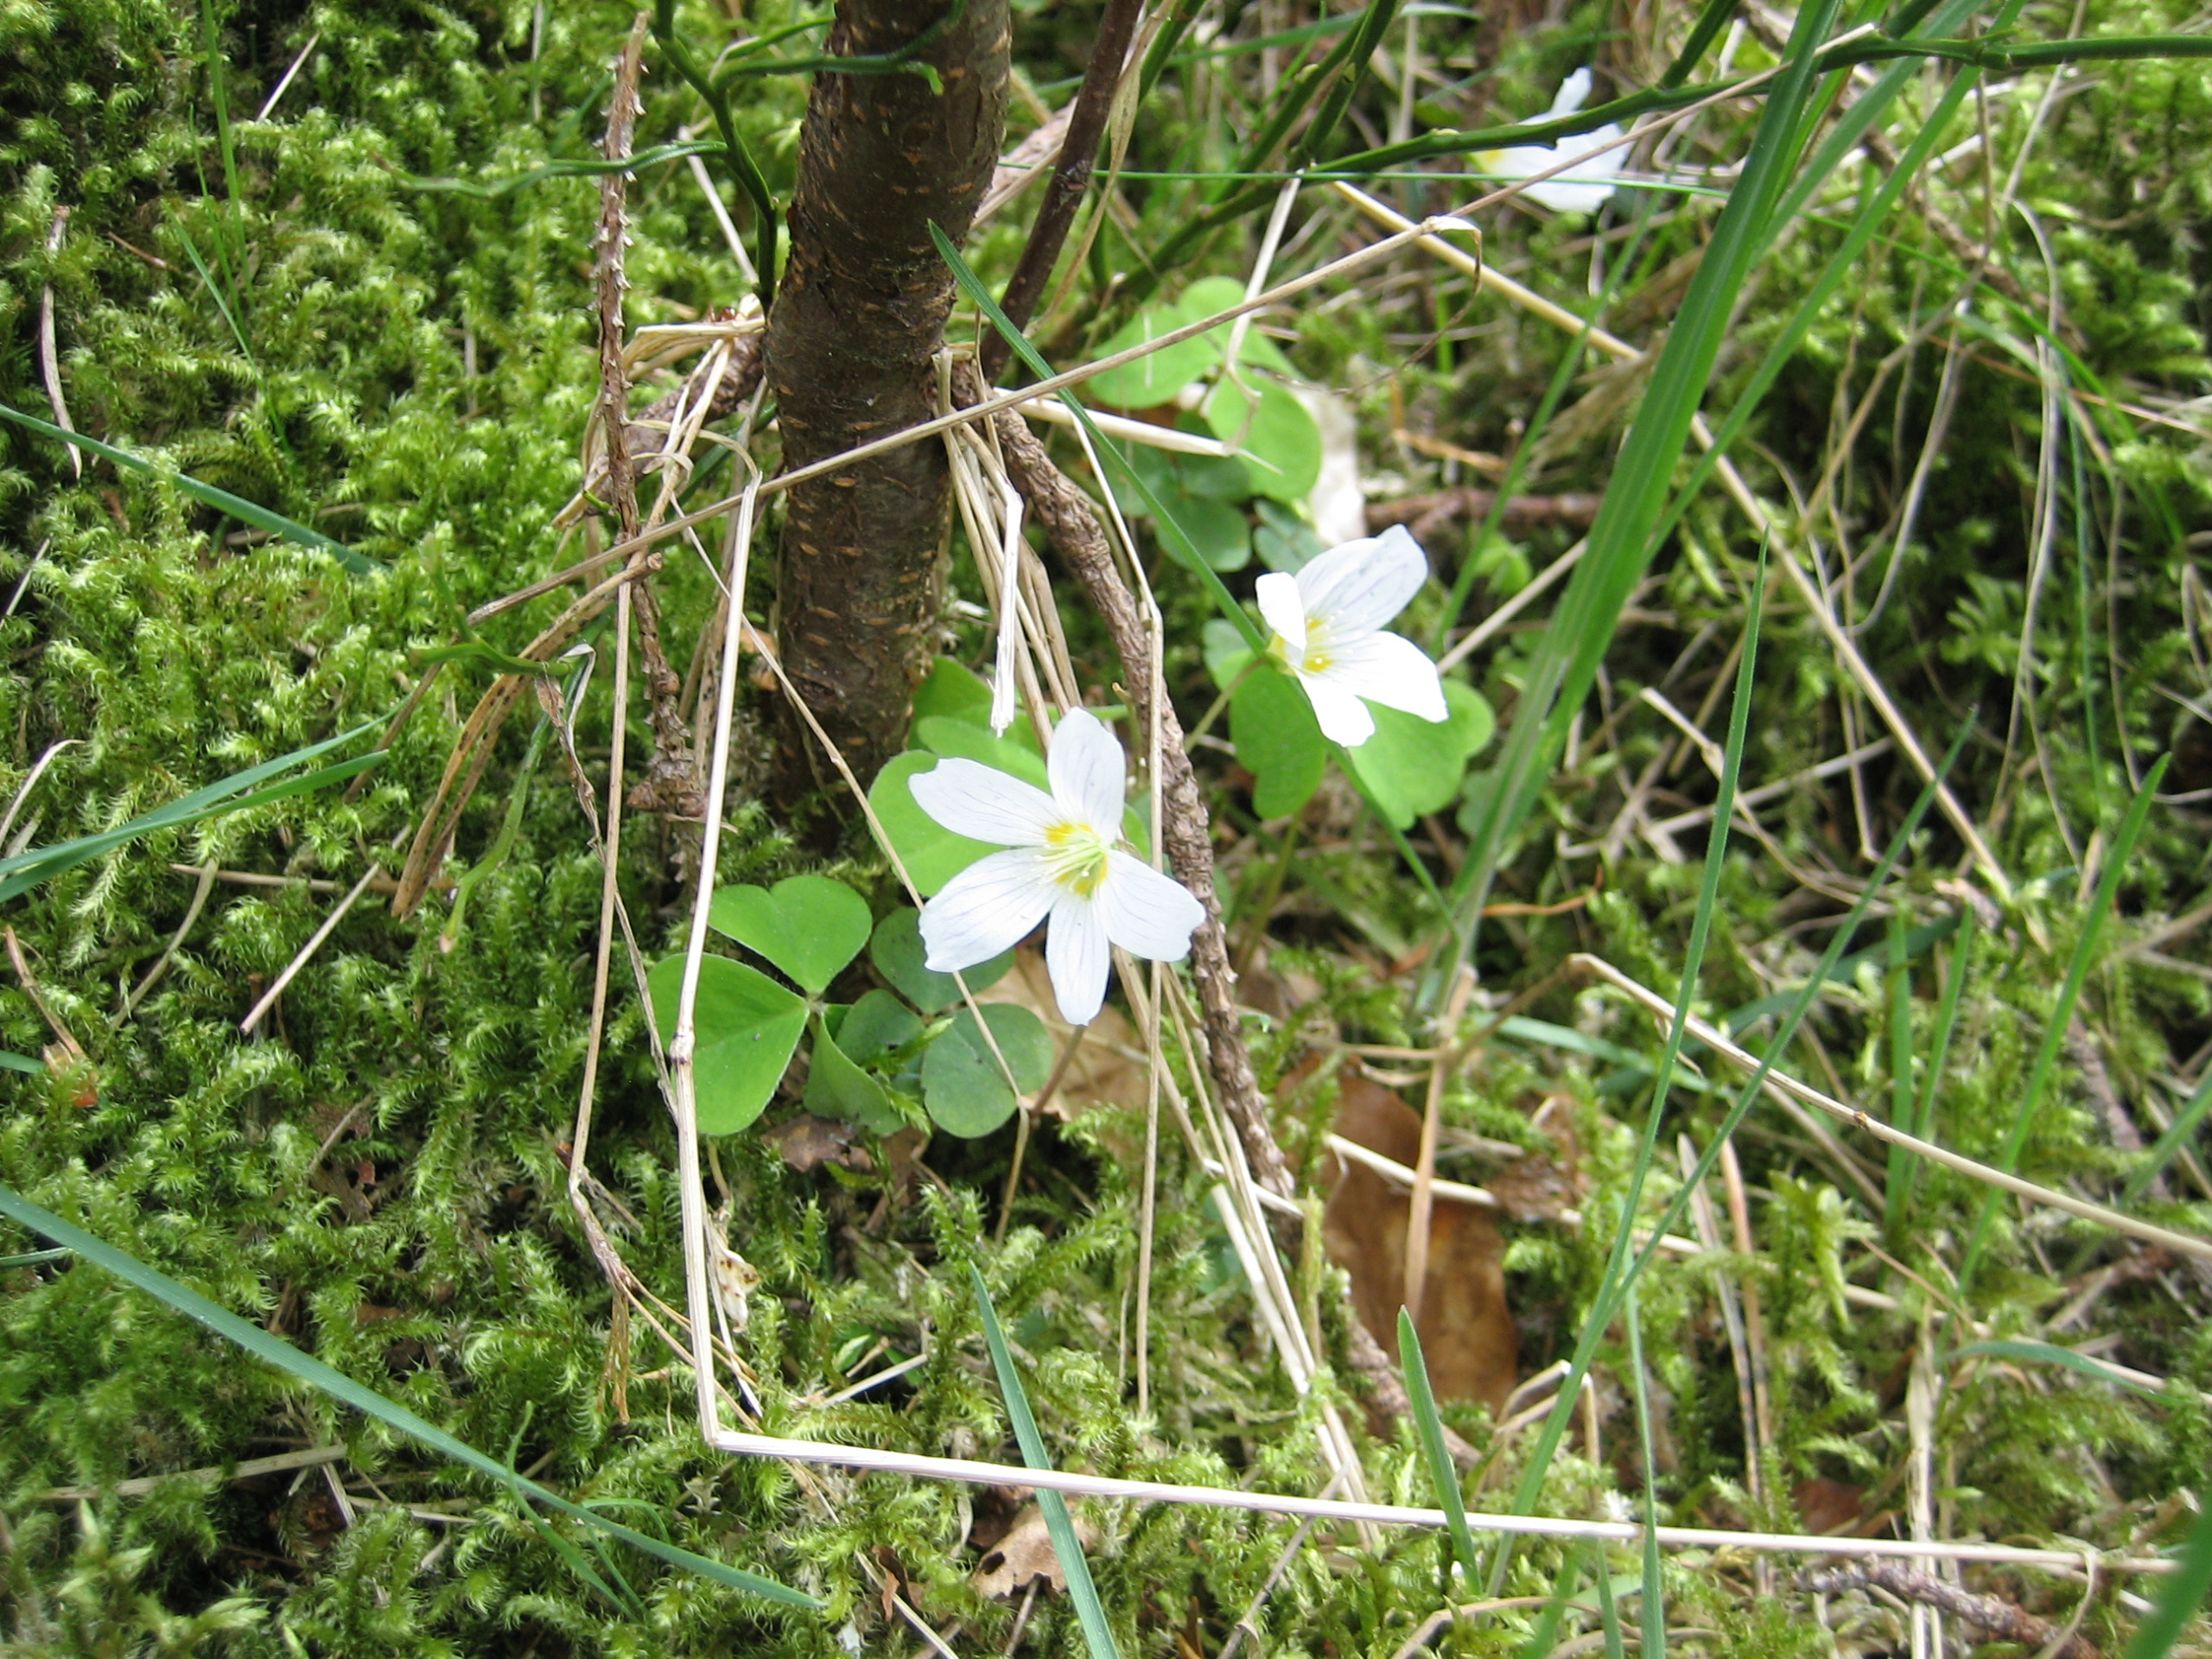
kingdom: Plantae
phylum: Tracheophyta
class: Magnoliopsida
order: Oxalidales
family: Oxalidaceae
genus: Oxalis
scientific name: Oxalis acetosella
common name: Skovsyre
